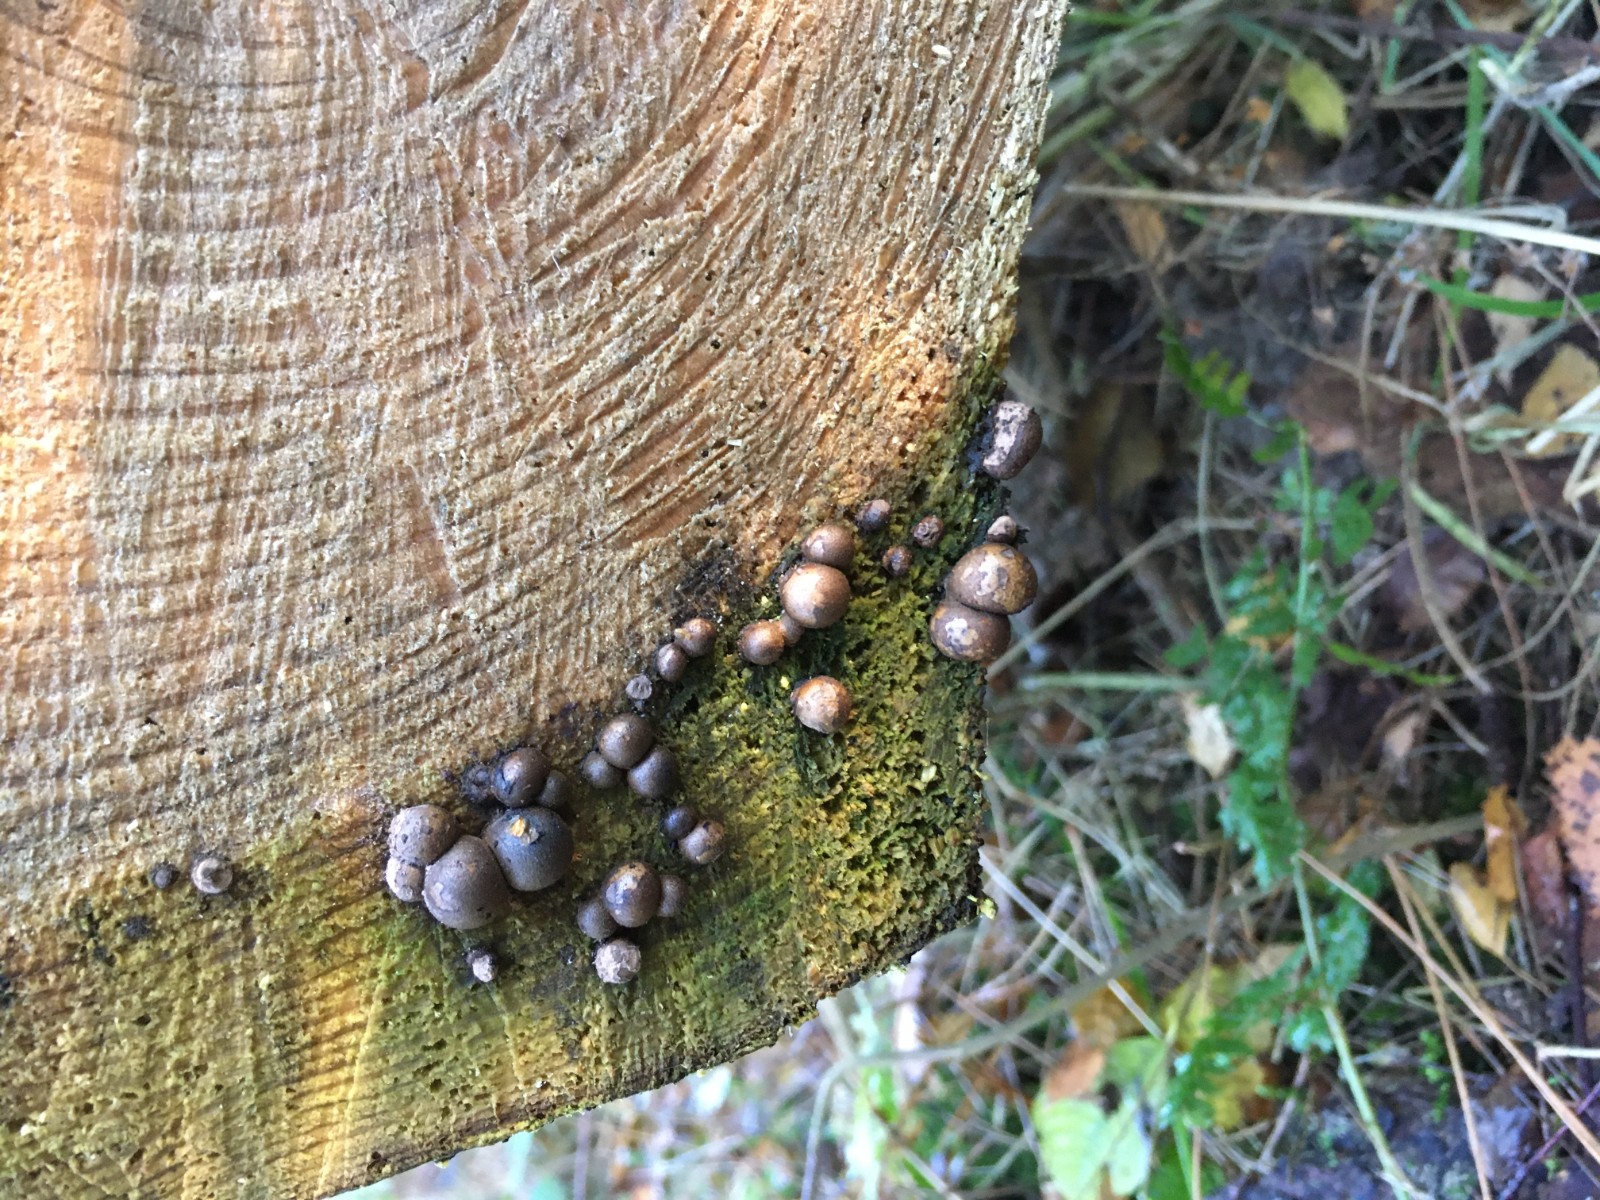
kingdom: Protozoa
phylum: Mycetozoa
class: Myxomycetes
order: Cribrariales
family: Tubiferaceae
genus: Lycogala
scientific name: Lycogala epidendrum
